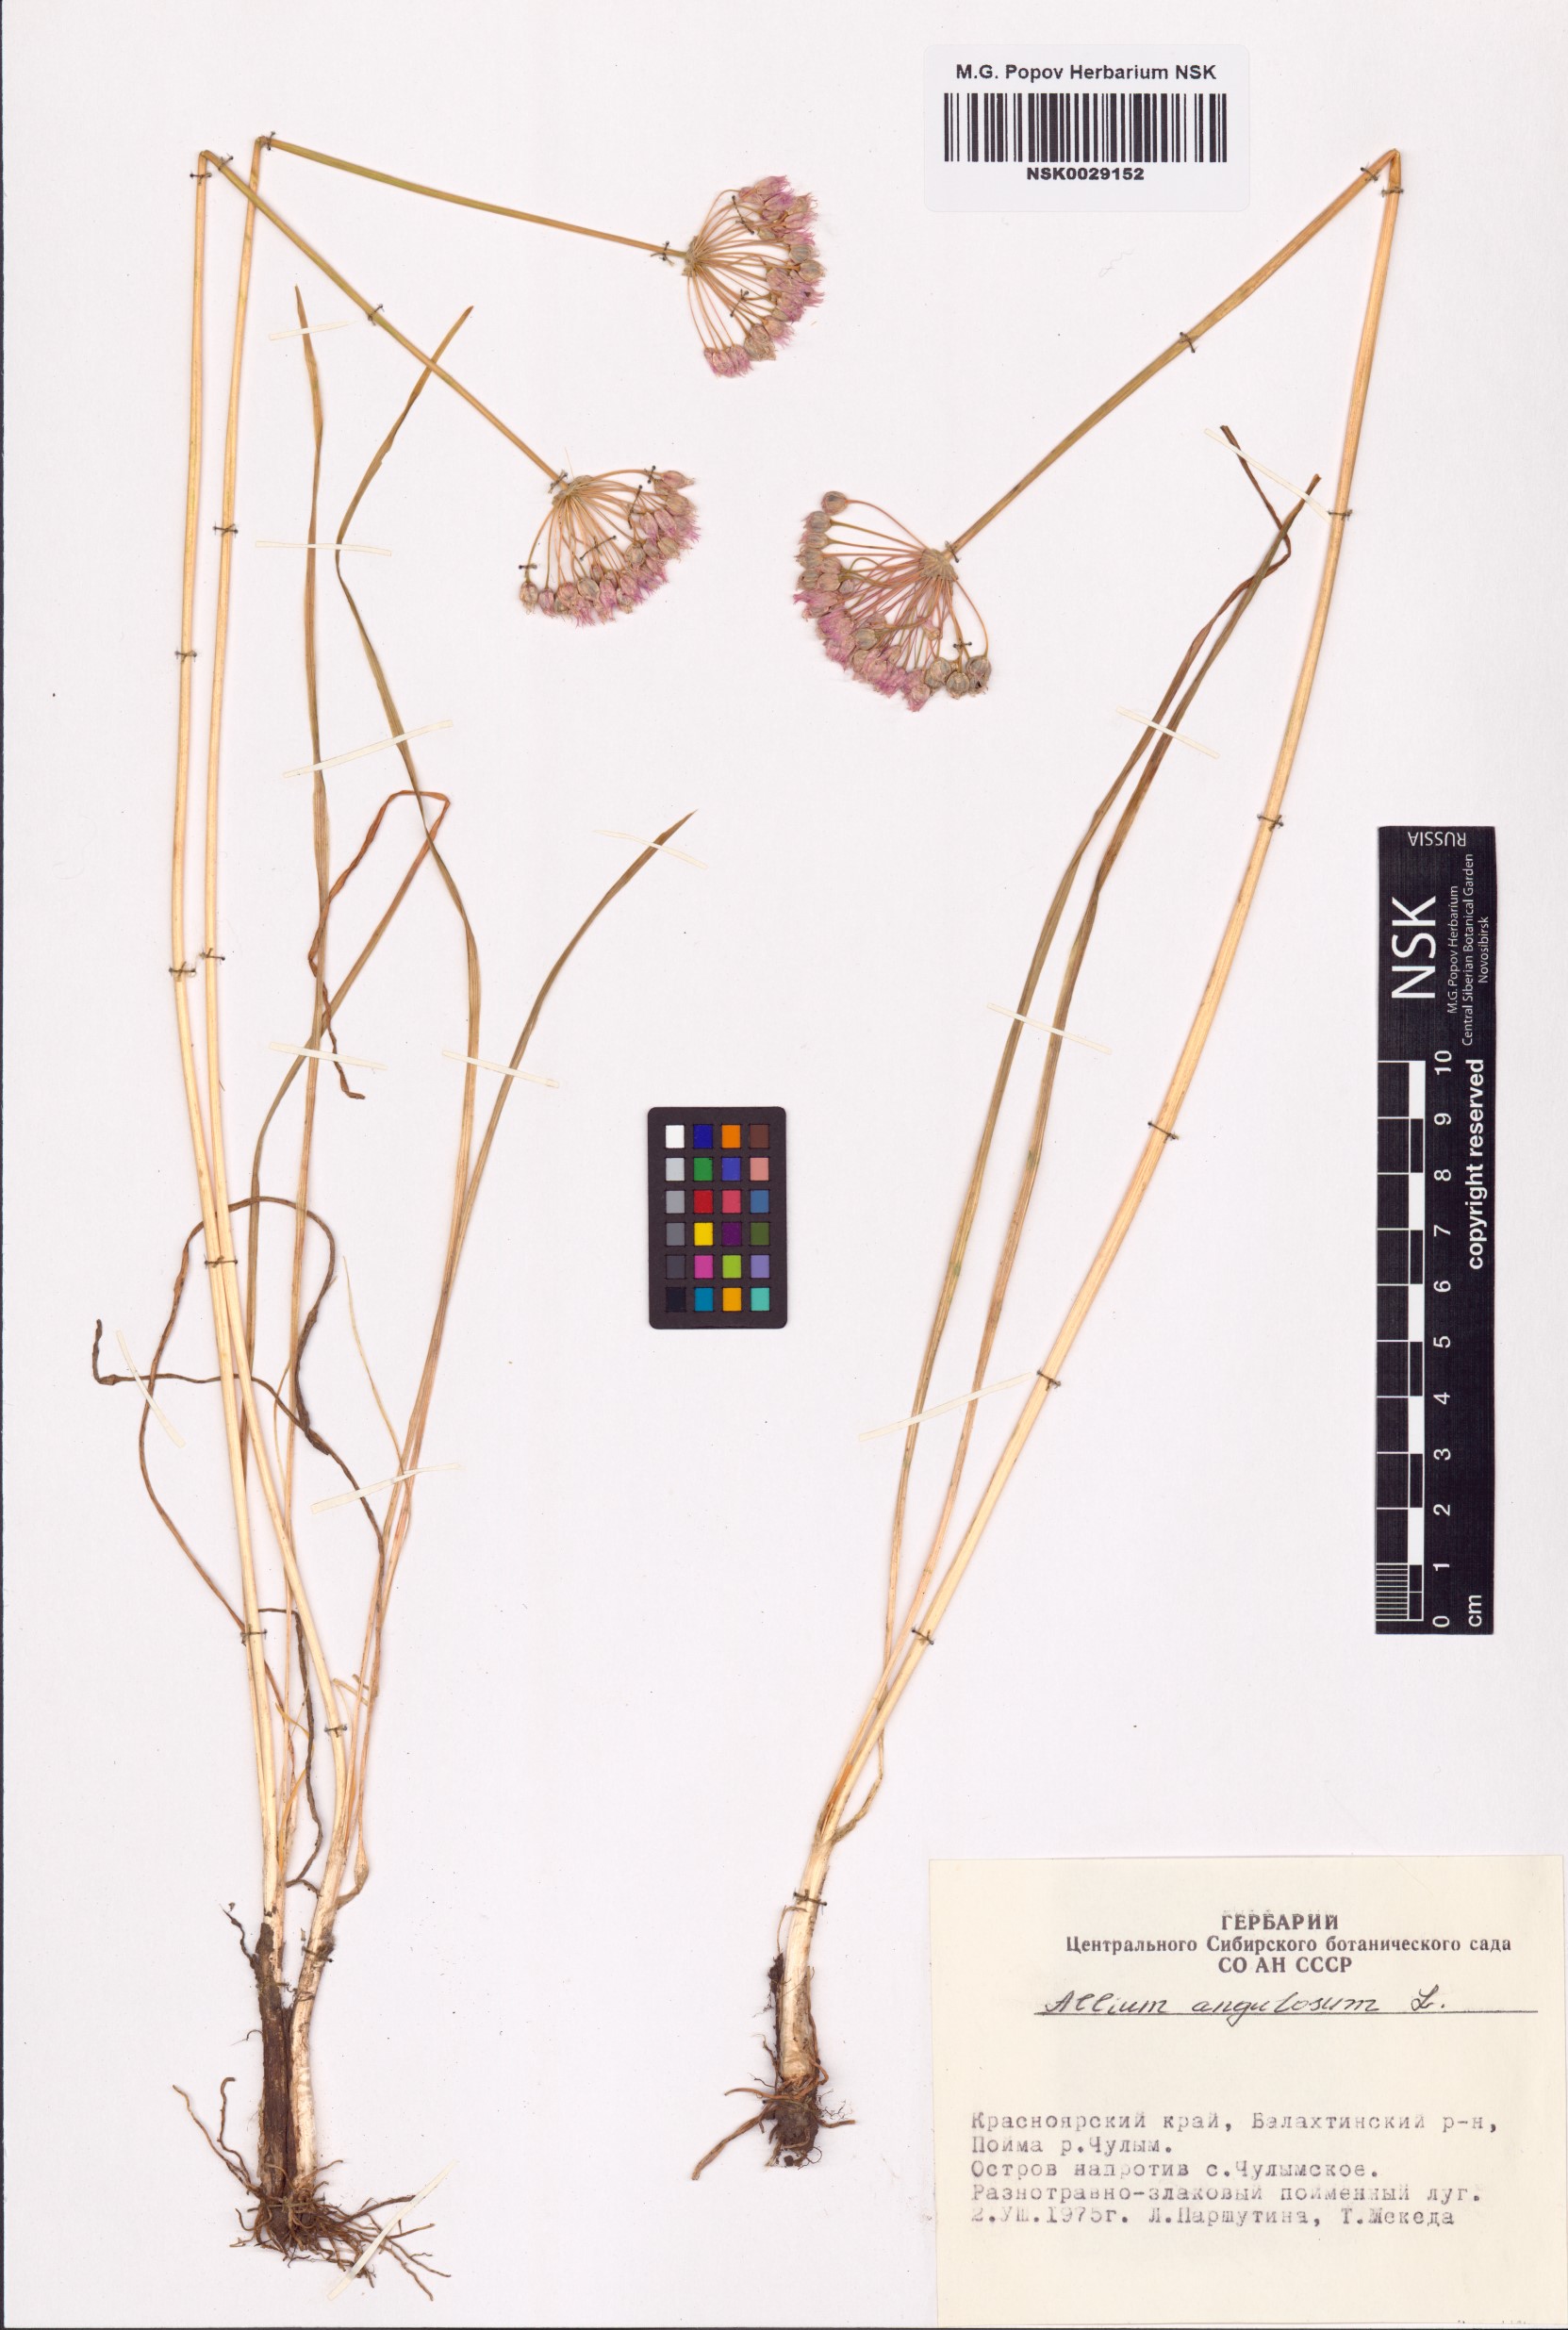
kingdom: Plantae
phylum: Tracheophyta
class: Liliopsida
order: Asparagales
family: Amaryllidaceae
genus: Allium
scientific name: Allium angulosum
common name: Mouse garlic
